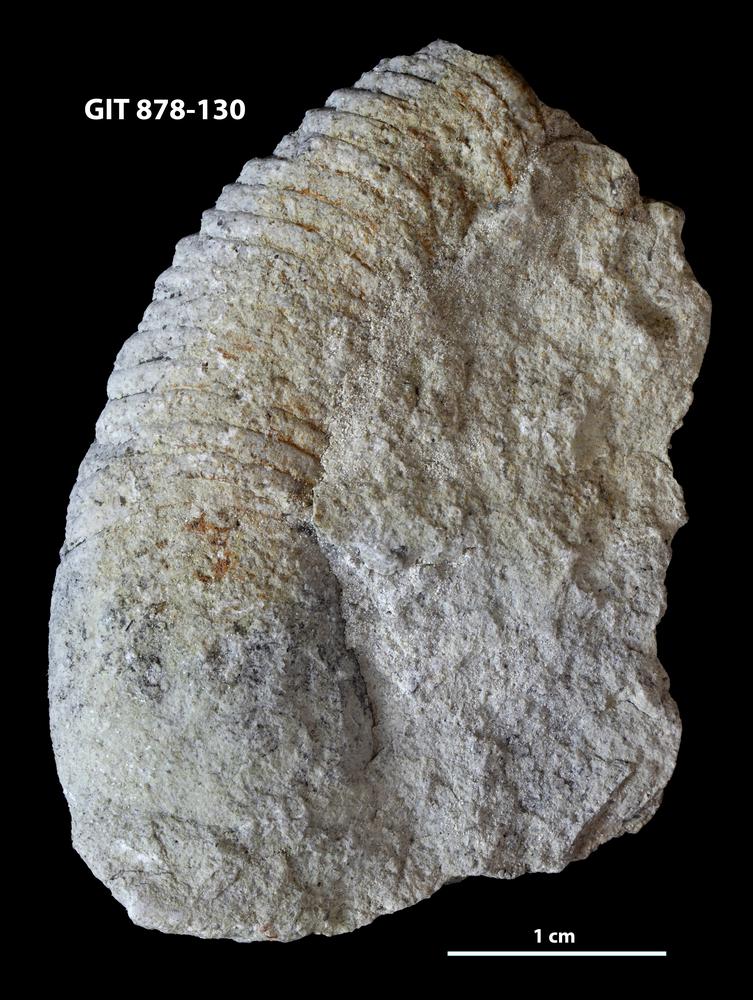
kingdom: Animalia
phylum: Mollusca
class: Cephalopoda
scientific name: Cephalopoda
